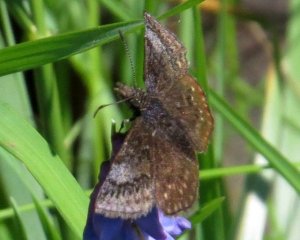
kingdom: Animalia
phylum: Arthropoda
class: Insecta
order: Lepidoptera
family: Hesperiidae
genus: Erynnis
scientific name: Erynnis icelus
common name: Dreamy Duskywing
